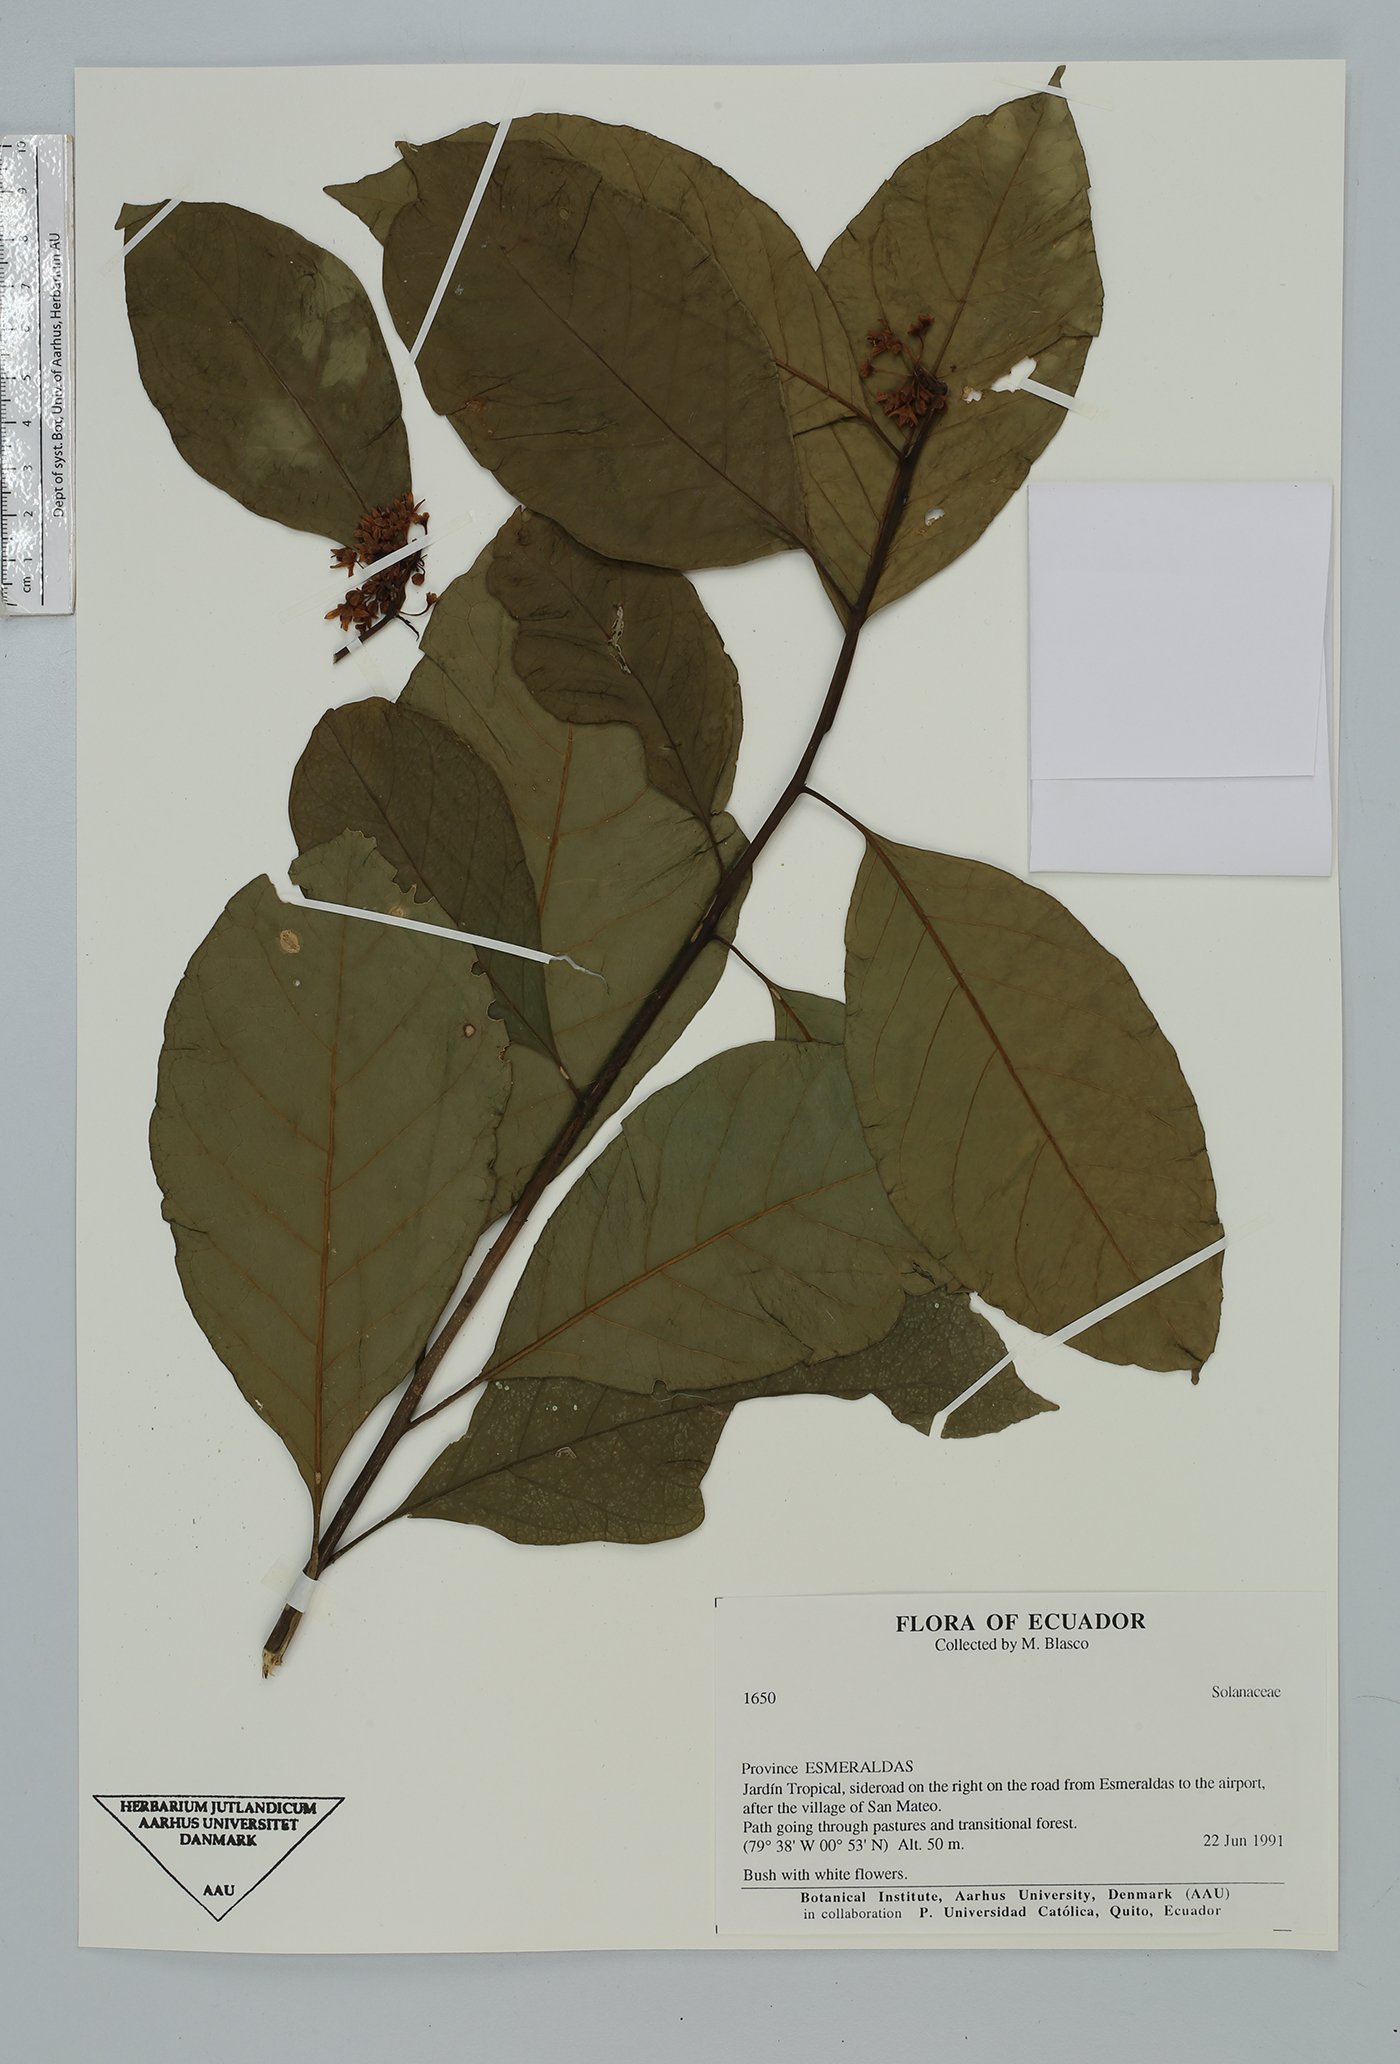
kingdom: Plantae
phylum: Tracheophyta
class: Magnoliopsida
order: Solanales
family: Solanaceae
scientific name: Solanaceae
